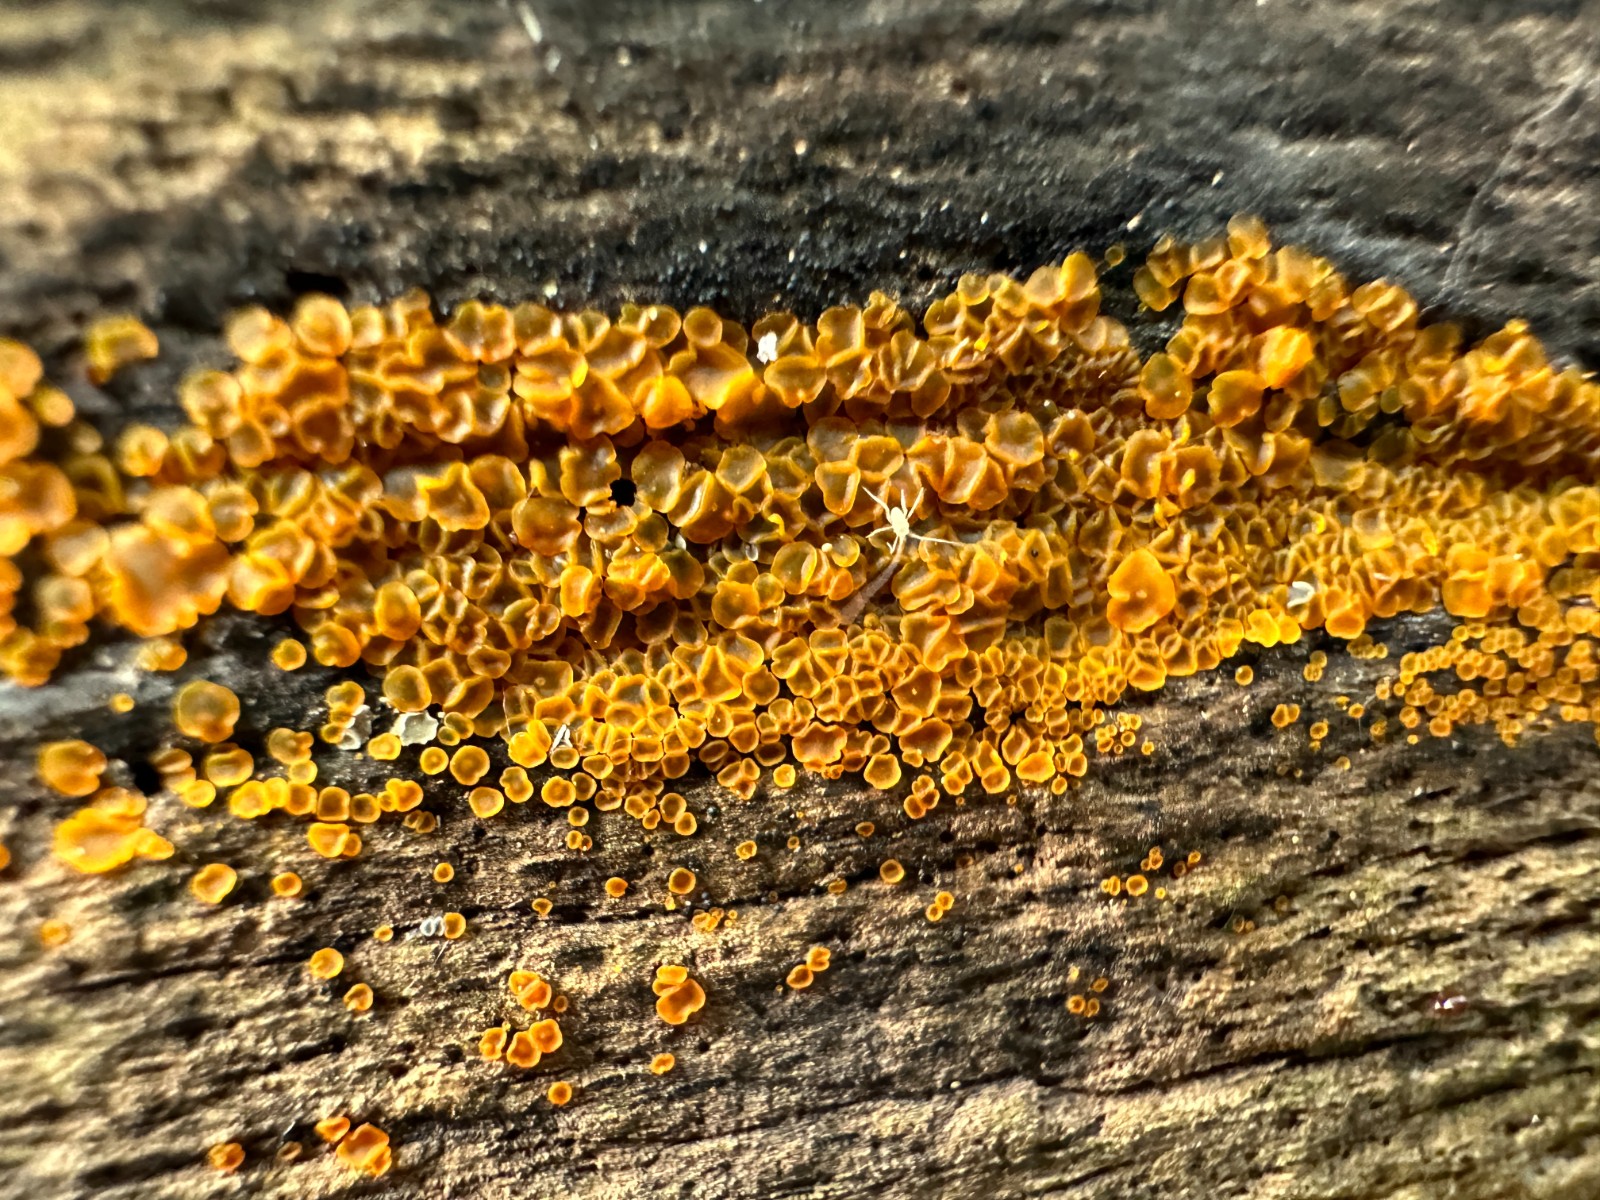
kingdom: Fungi
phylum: Ascomycota
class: Orbiliomycetes
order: Orbiliales
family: Orbiliaceae
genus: Orbilia
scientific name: Orbilia xanthostigma
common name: krumsporet voksskive
